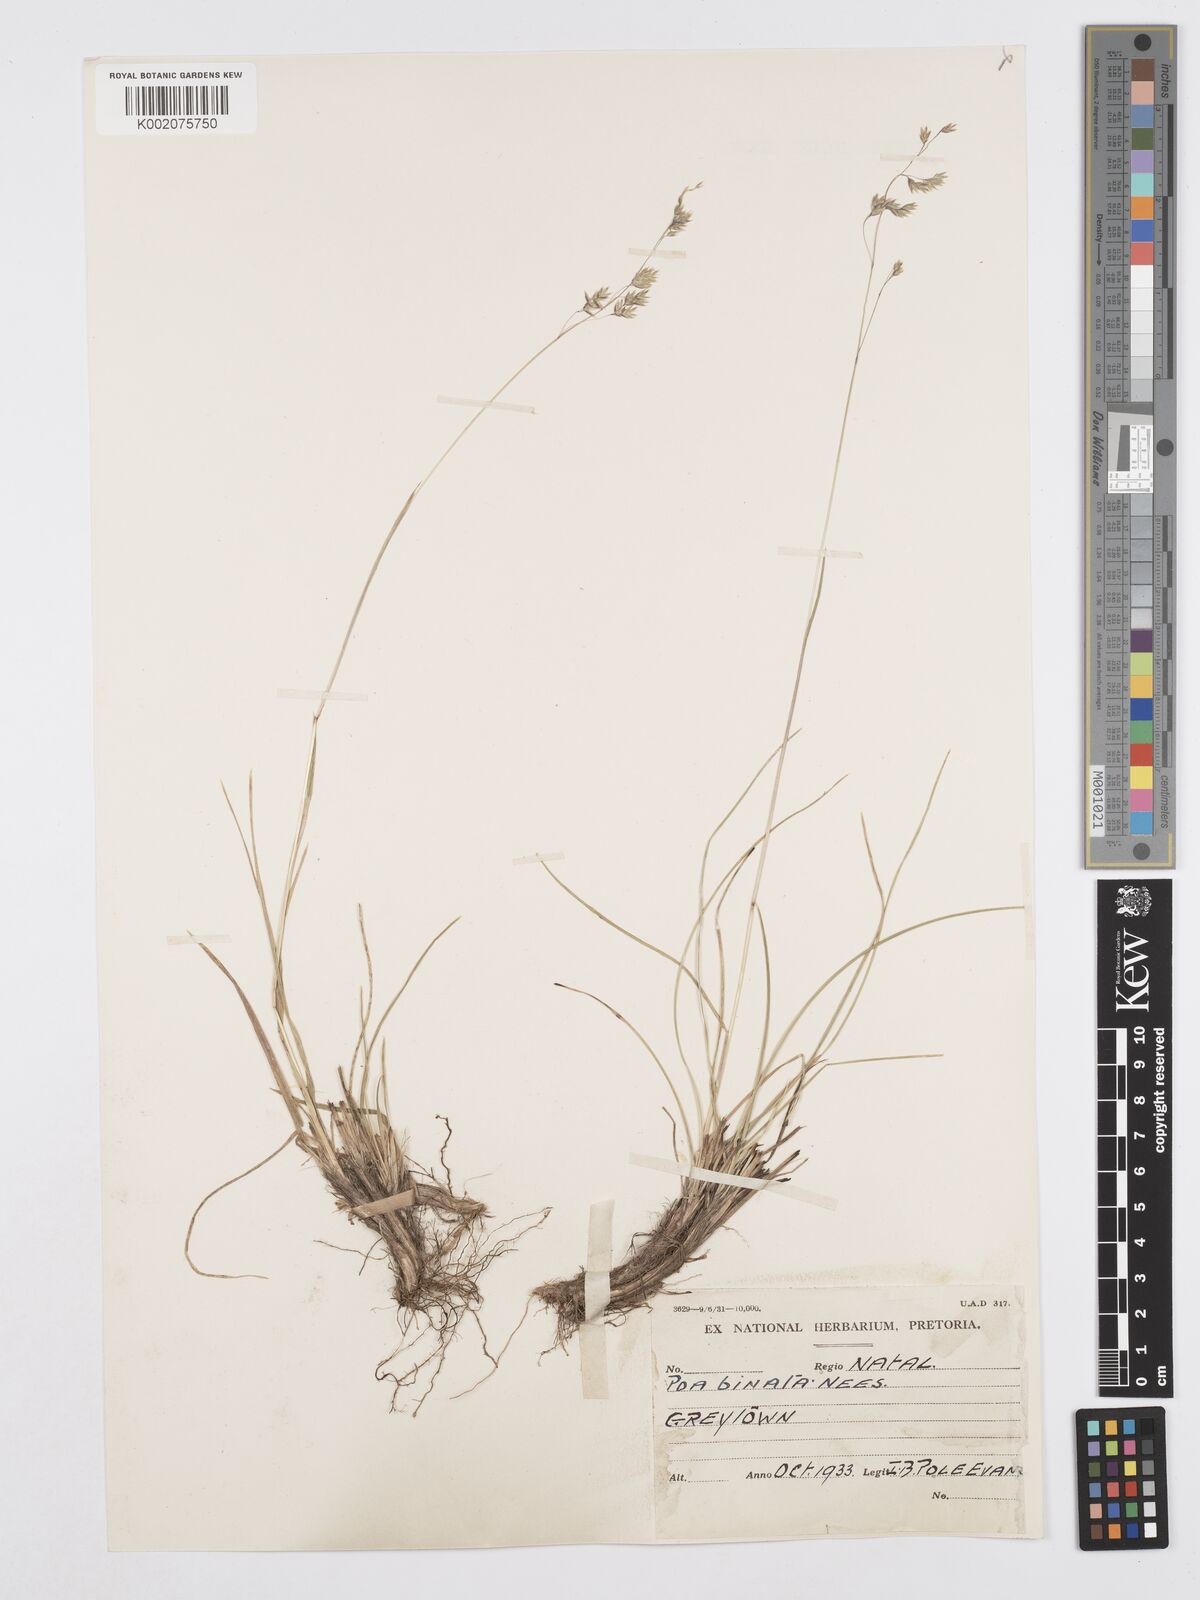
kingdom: Plantae
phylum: Tracheophyta
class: Liliopsida
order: Poales
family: Poaceae
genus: Poa
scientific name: Poa binata
